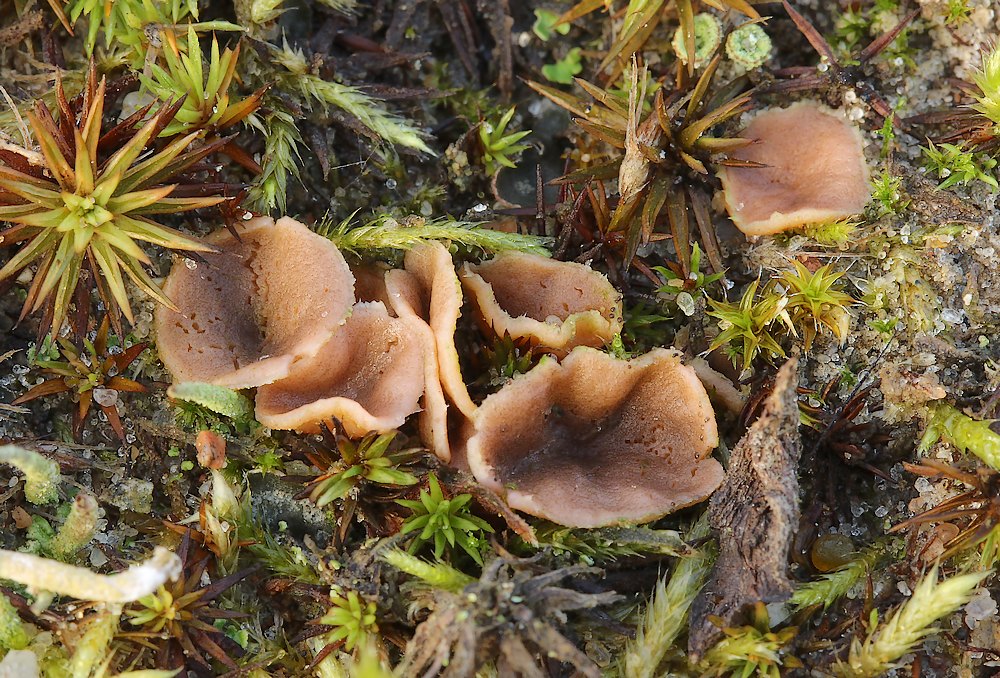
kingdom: Fungi
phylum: Ascomycota
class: Pezizomycetes
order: Pezizales
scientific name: Pezizales
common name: bægersvampordenen
